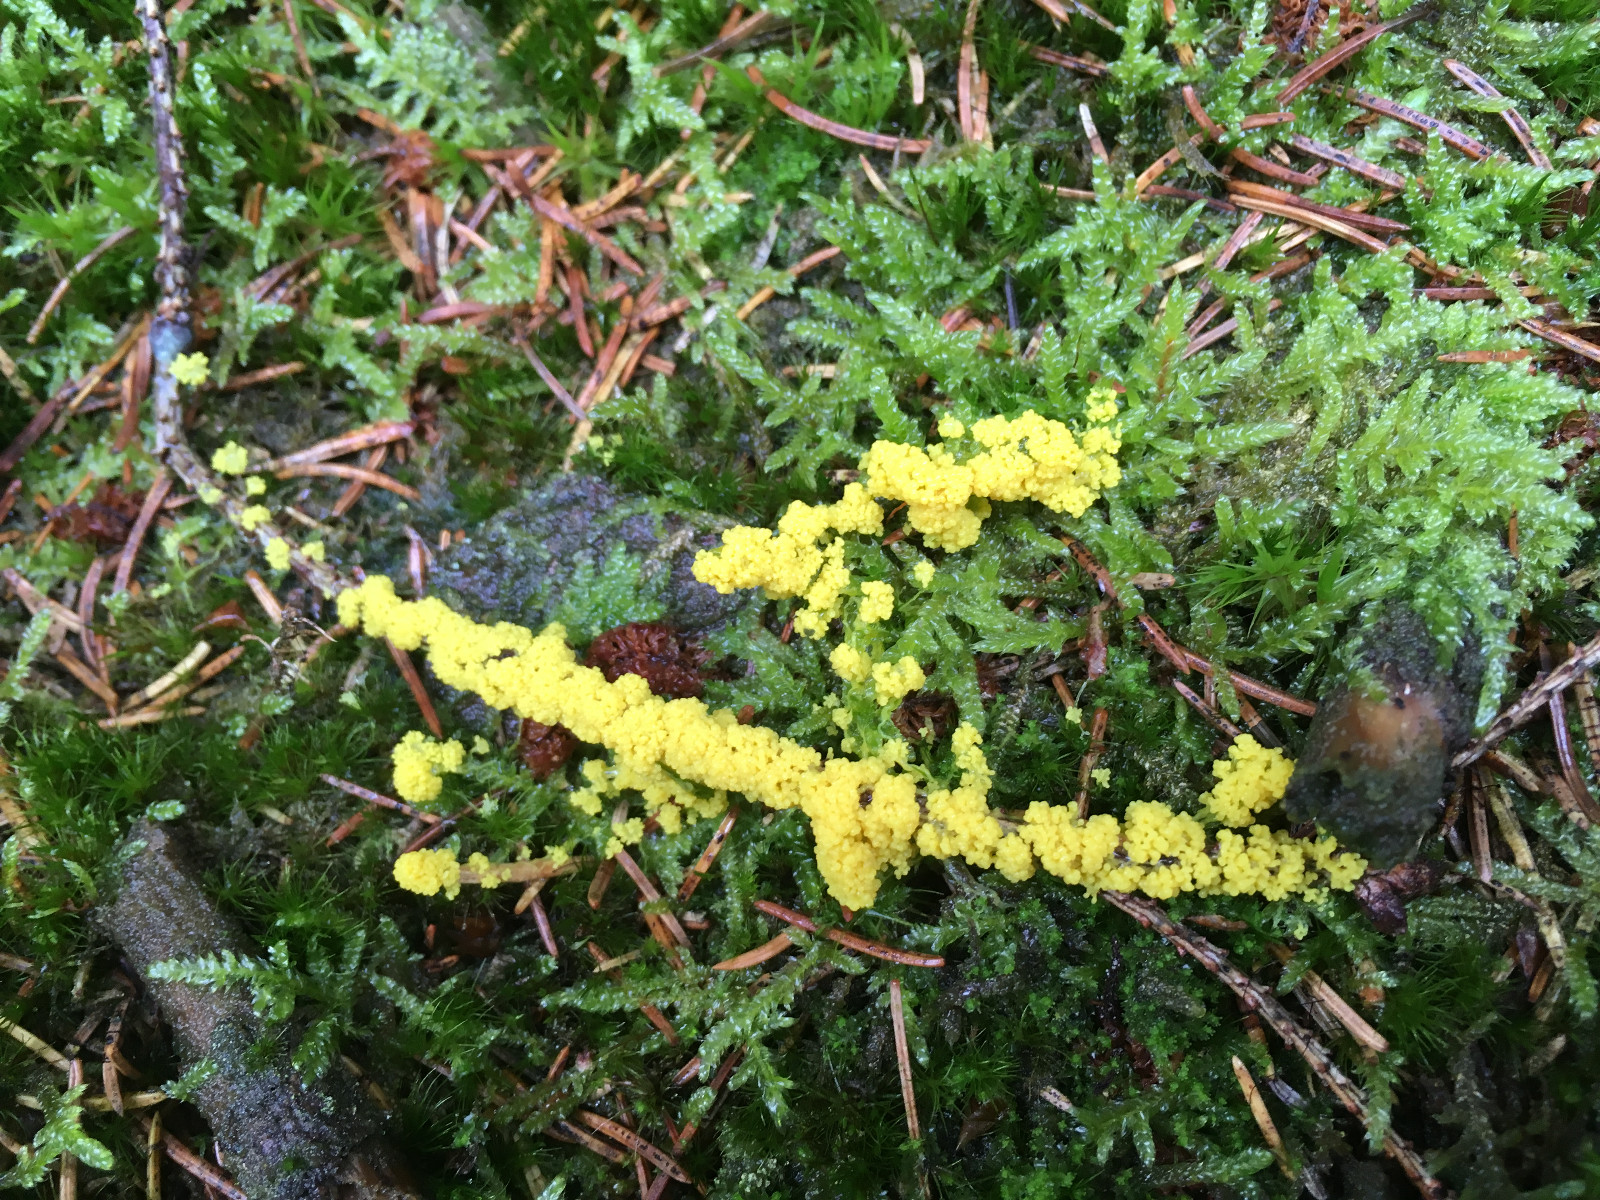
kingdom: Protozoa
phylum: Mycetozoa
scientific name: Mycetozoa
